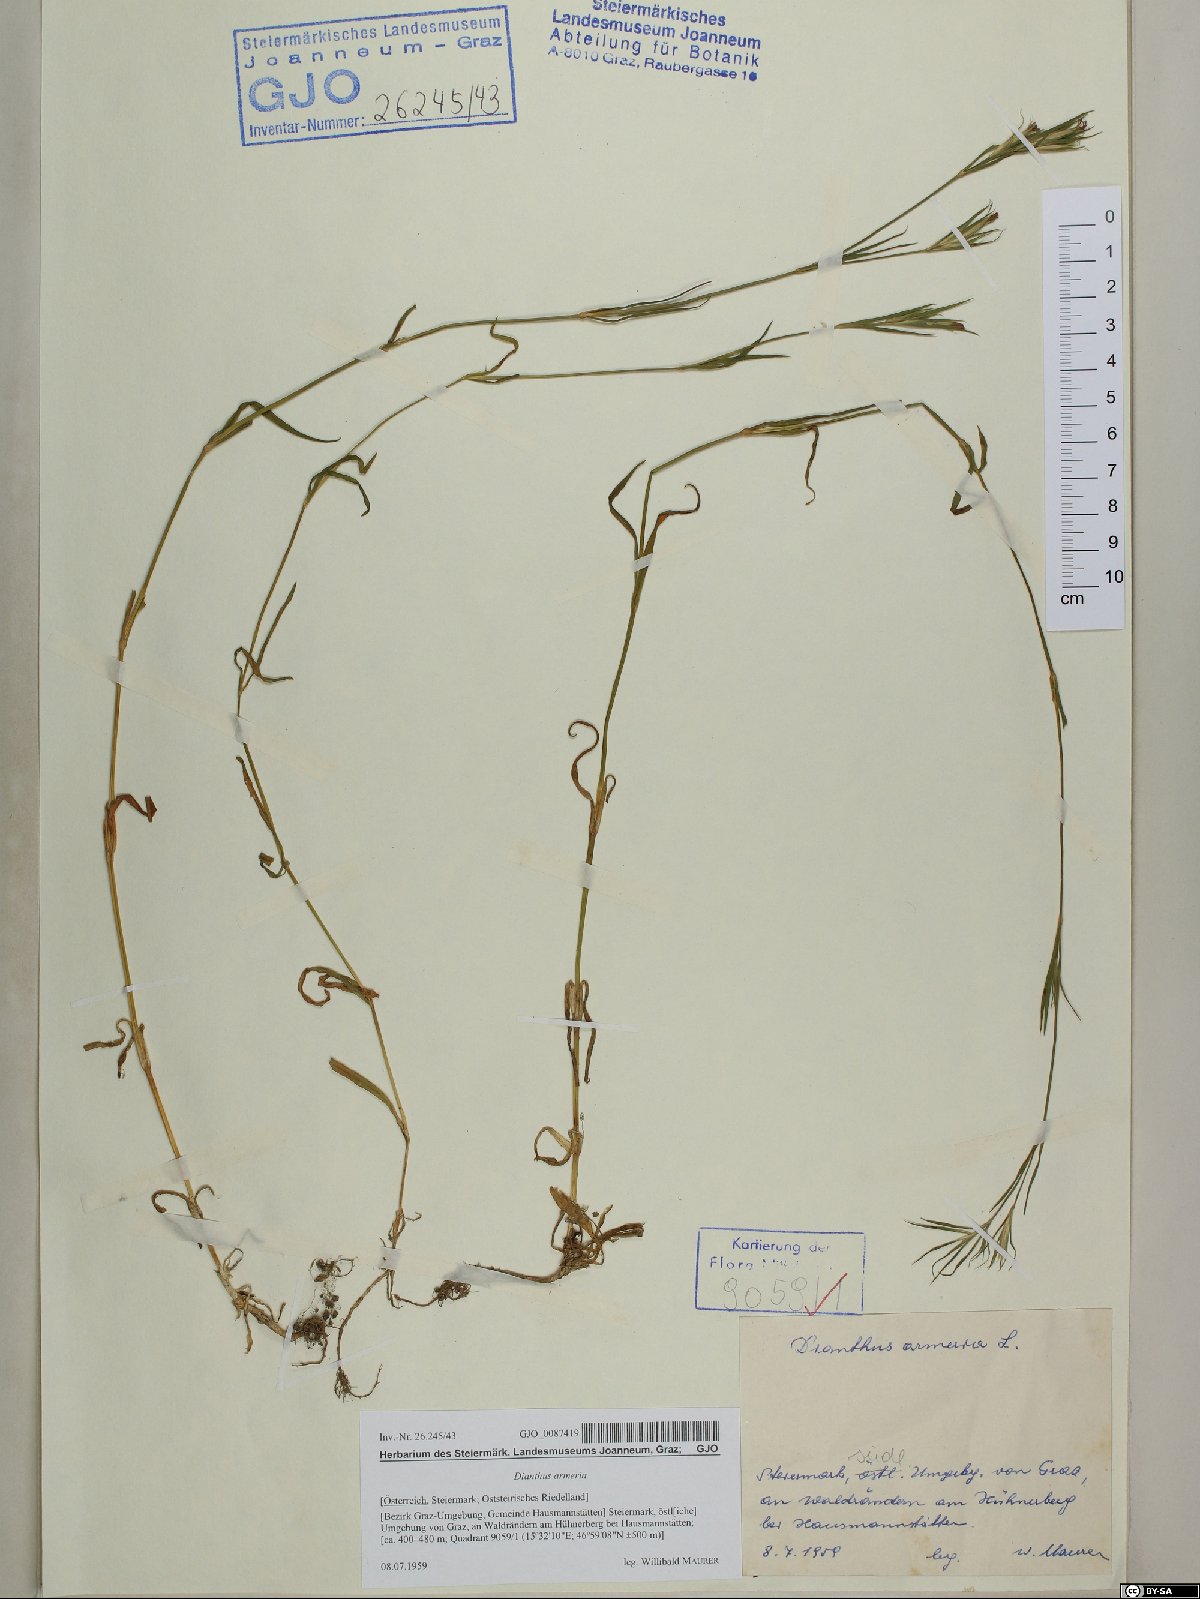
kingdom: Plantae
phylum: Tracheophyta
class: Magnoliopsida
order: Caryophyllales
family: Caryophyllaceae
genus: Dianthus
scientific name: Dianthus armeria
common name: Deptford pink
